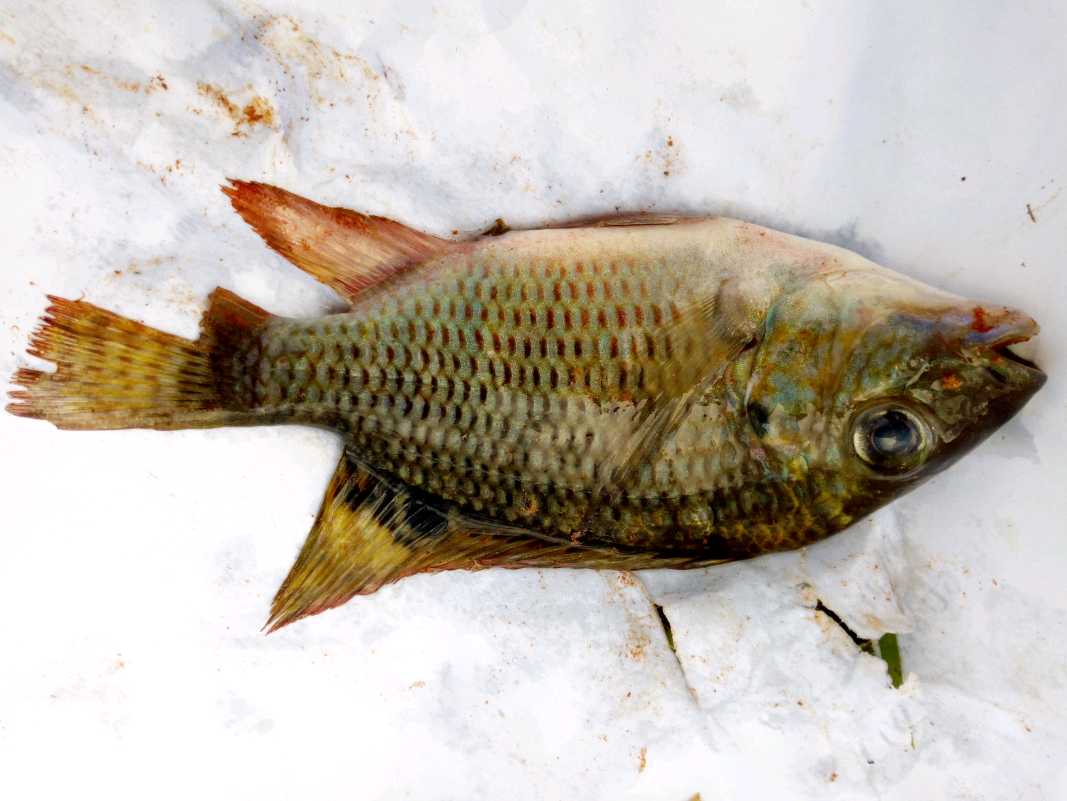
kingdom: Animalia
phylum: Chordata
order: Perciformes
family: Cichlidae
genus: Coptodon
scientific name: Coptodon rendalli
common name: Redbreast tilapia
